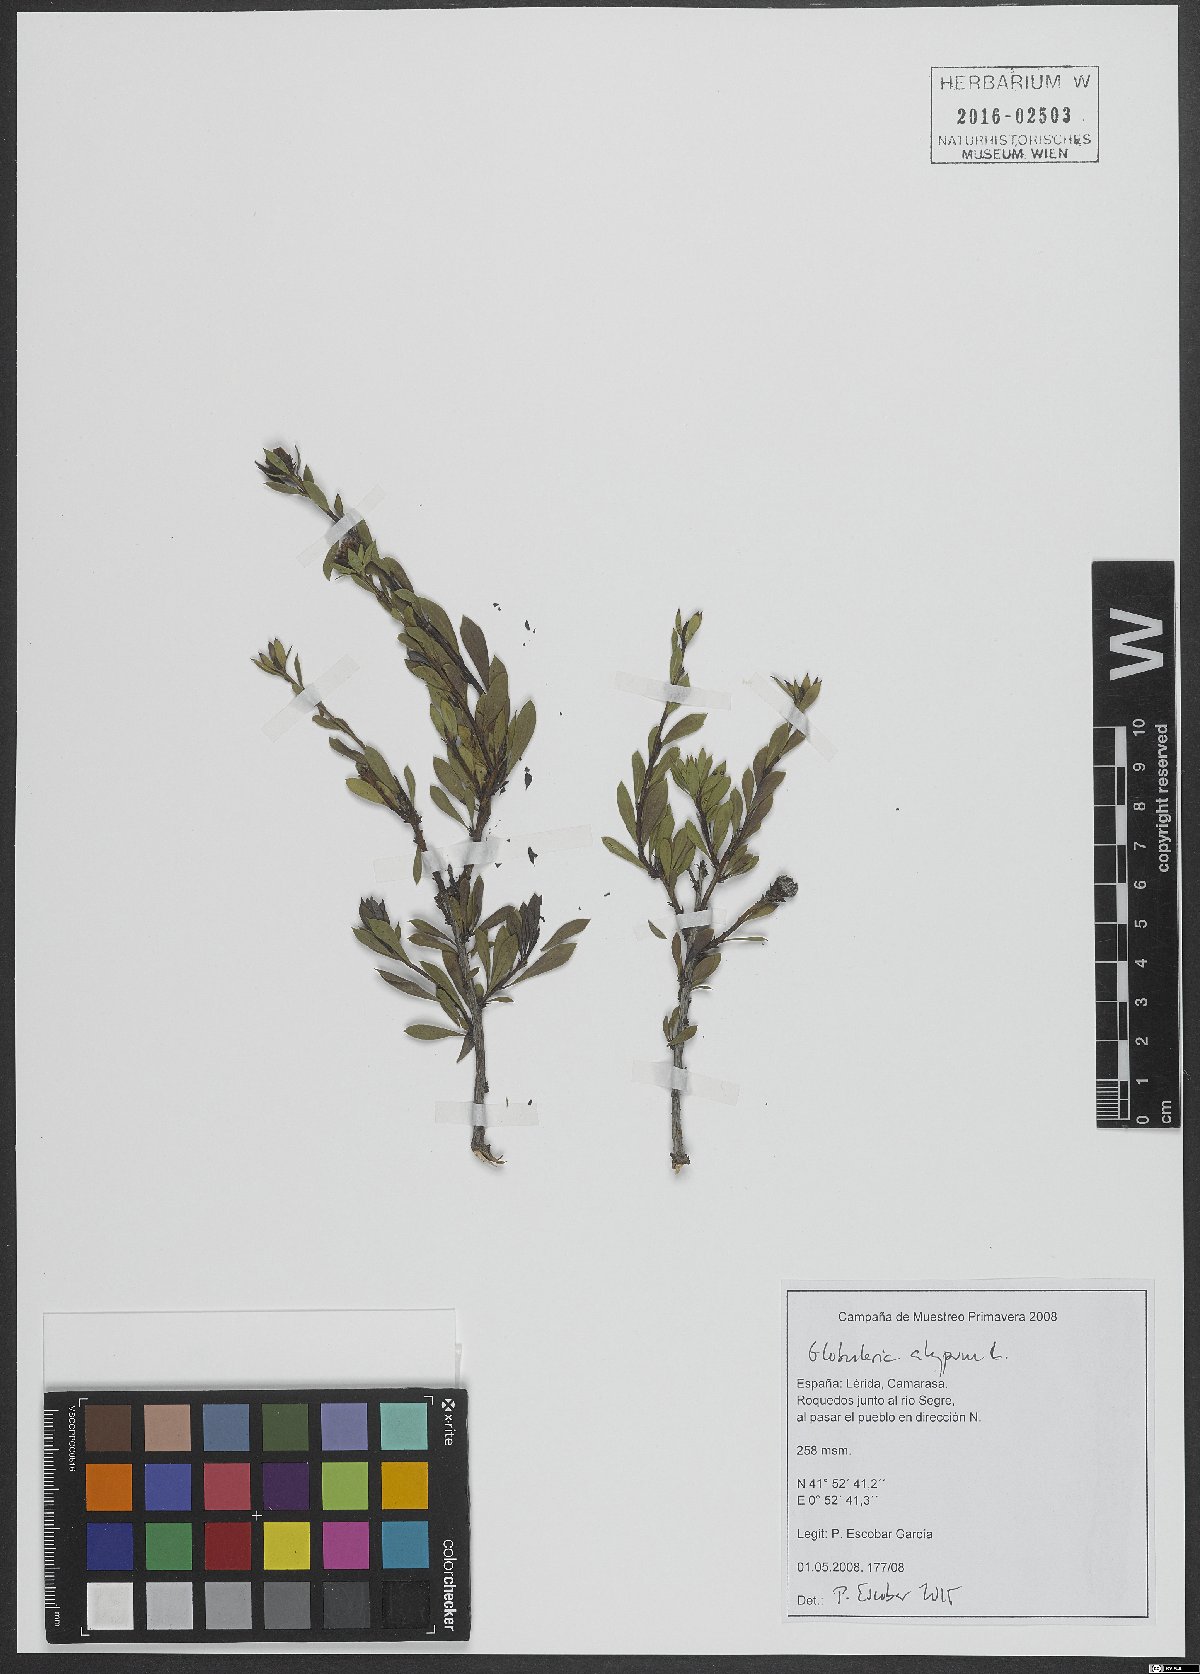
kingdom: Plantae
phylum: Tracheophyta
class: Magnoliopsida
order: Lamiales
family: Plantaginaceae
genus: Globularia
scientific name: Globularia alypum
